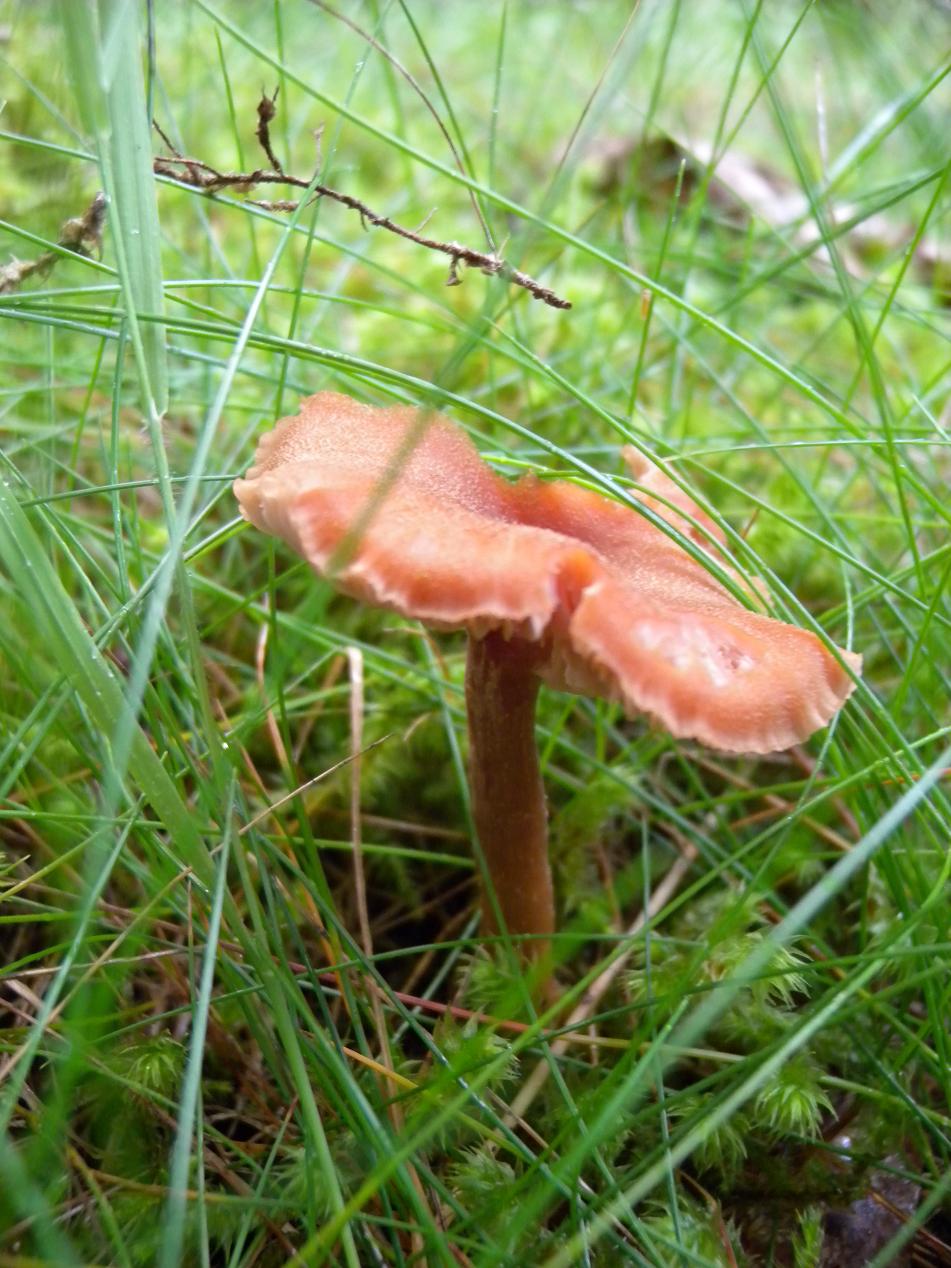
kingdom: Fungi
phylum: Basidiomycota
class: Agaricomycetes
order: Agaricales
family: Hydnangiaceae
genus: Laccaria
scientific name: Laccaria proxima
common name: stor ametysthat
